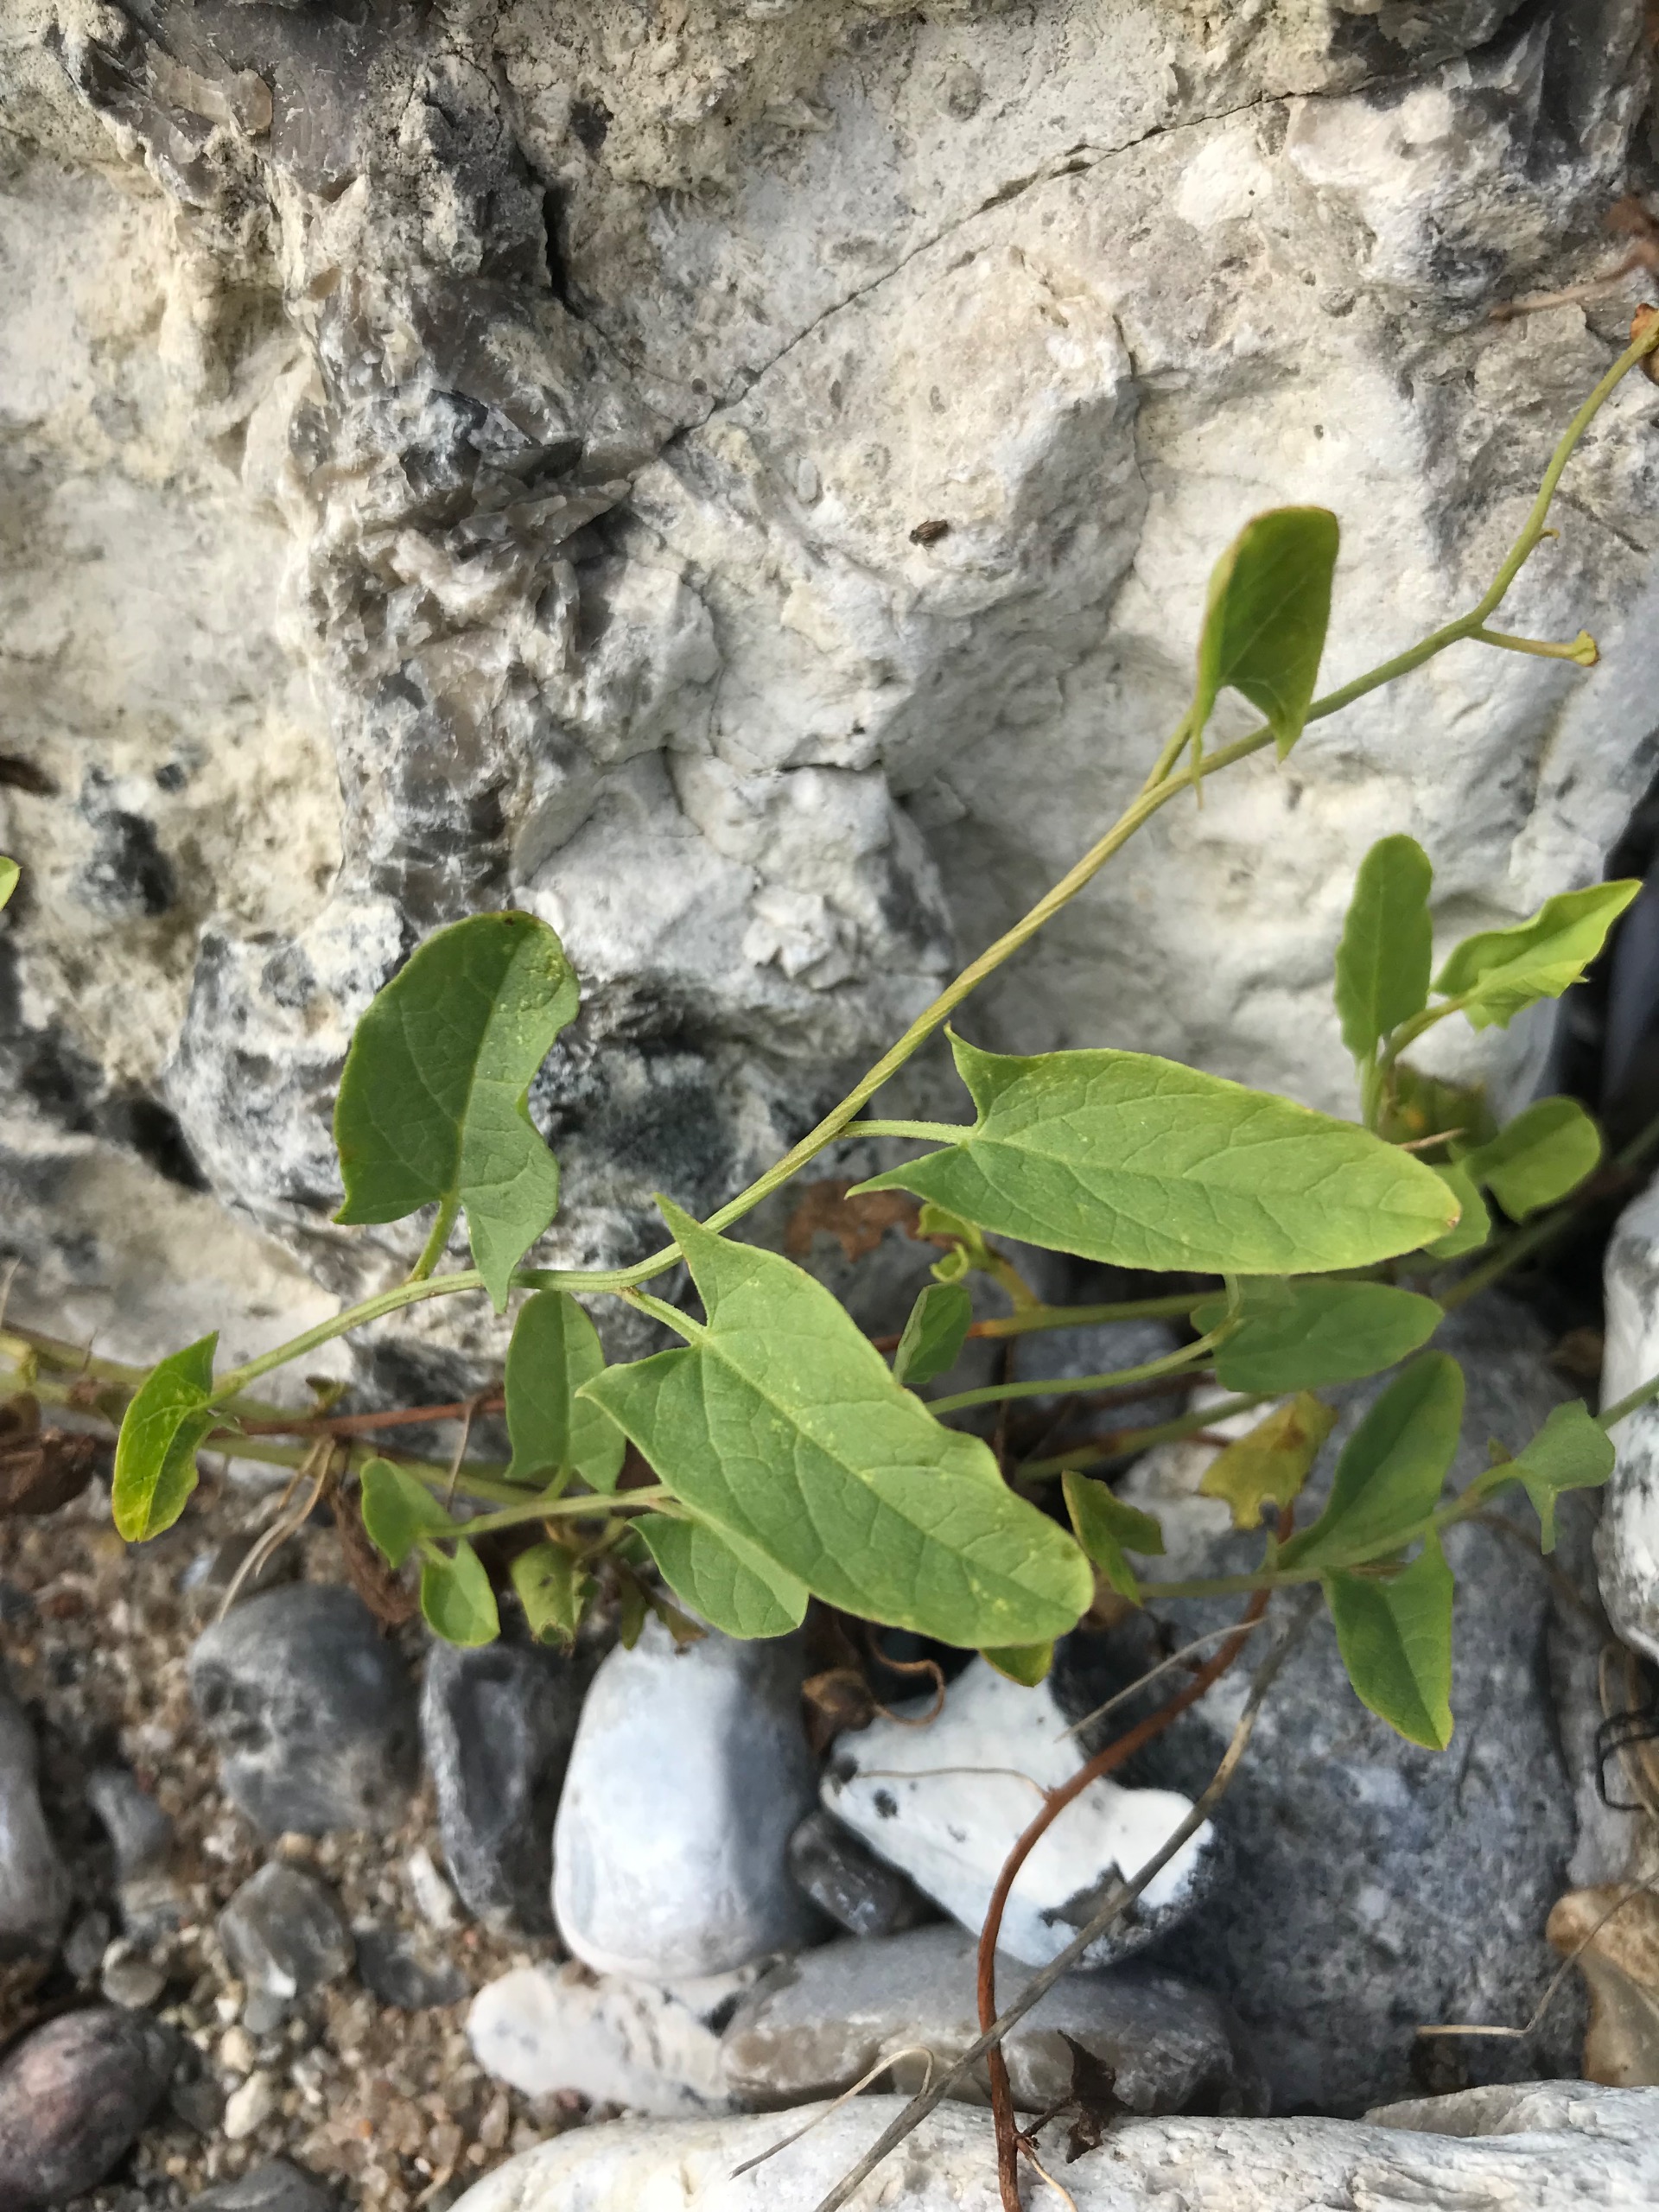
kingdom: Plantae
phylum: Tracheophyta
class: Magnoliopsida
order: Solanales
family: Convolvulaceae
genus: Convolvulus
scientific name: Convolvulus arvensis
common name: Ager-snerle
